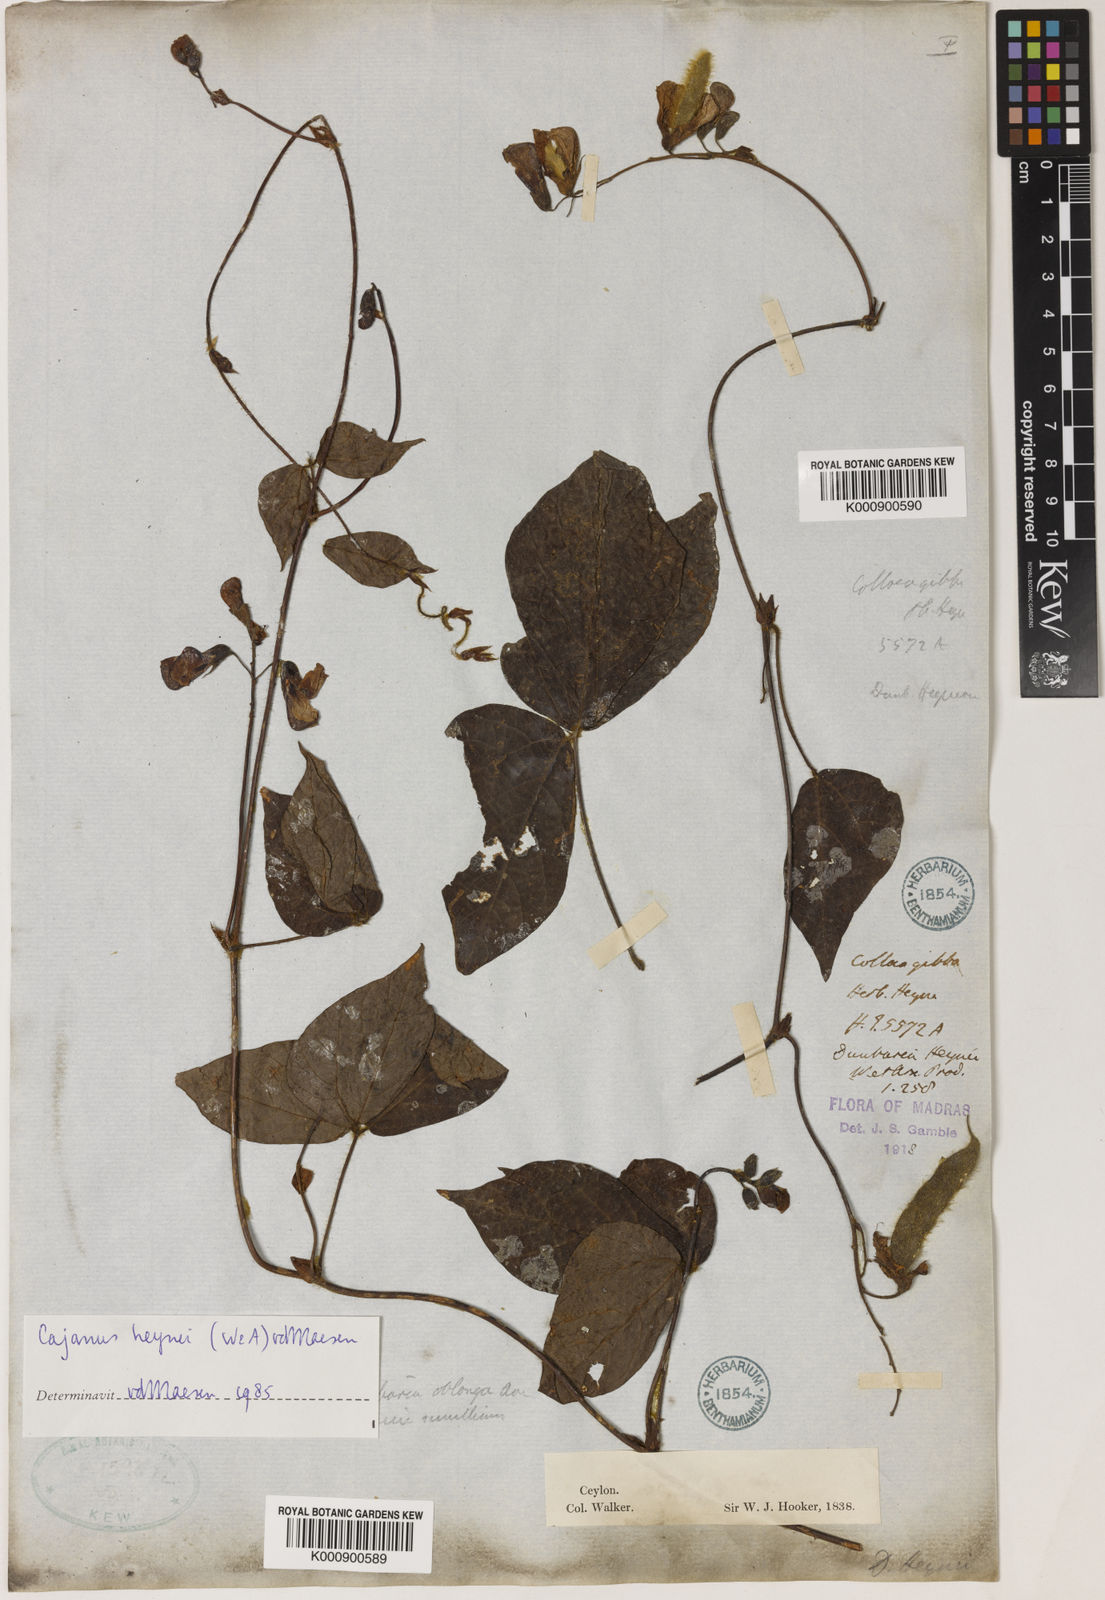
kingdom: Plantae
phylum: Tracheophyta
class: Magnoliopsida
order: Fabales
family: Fabaceae
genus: Cajanus
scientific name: Cajanus heynei
